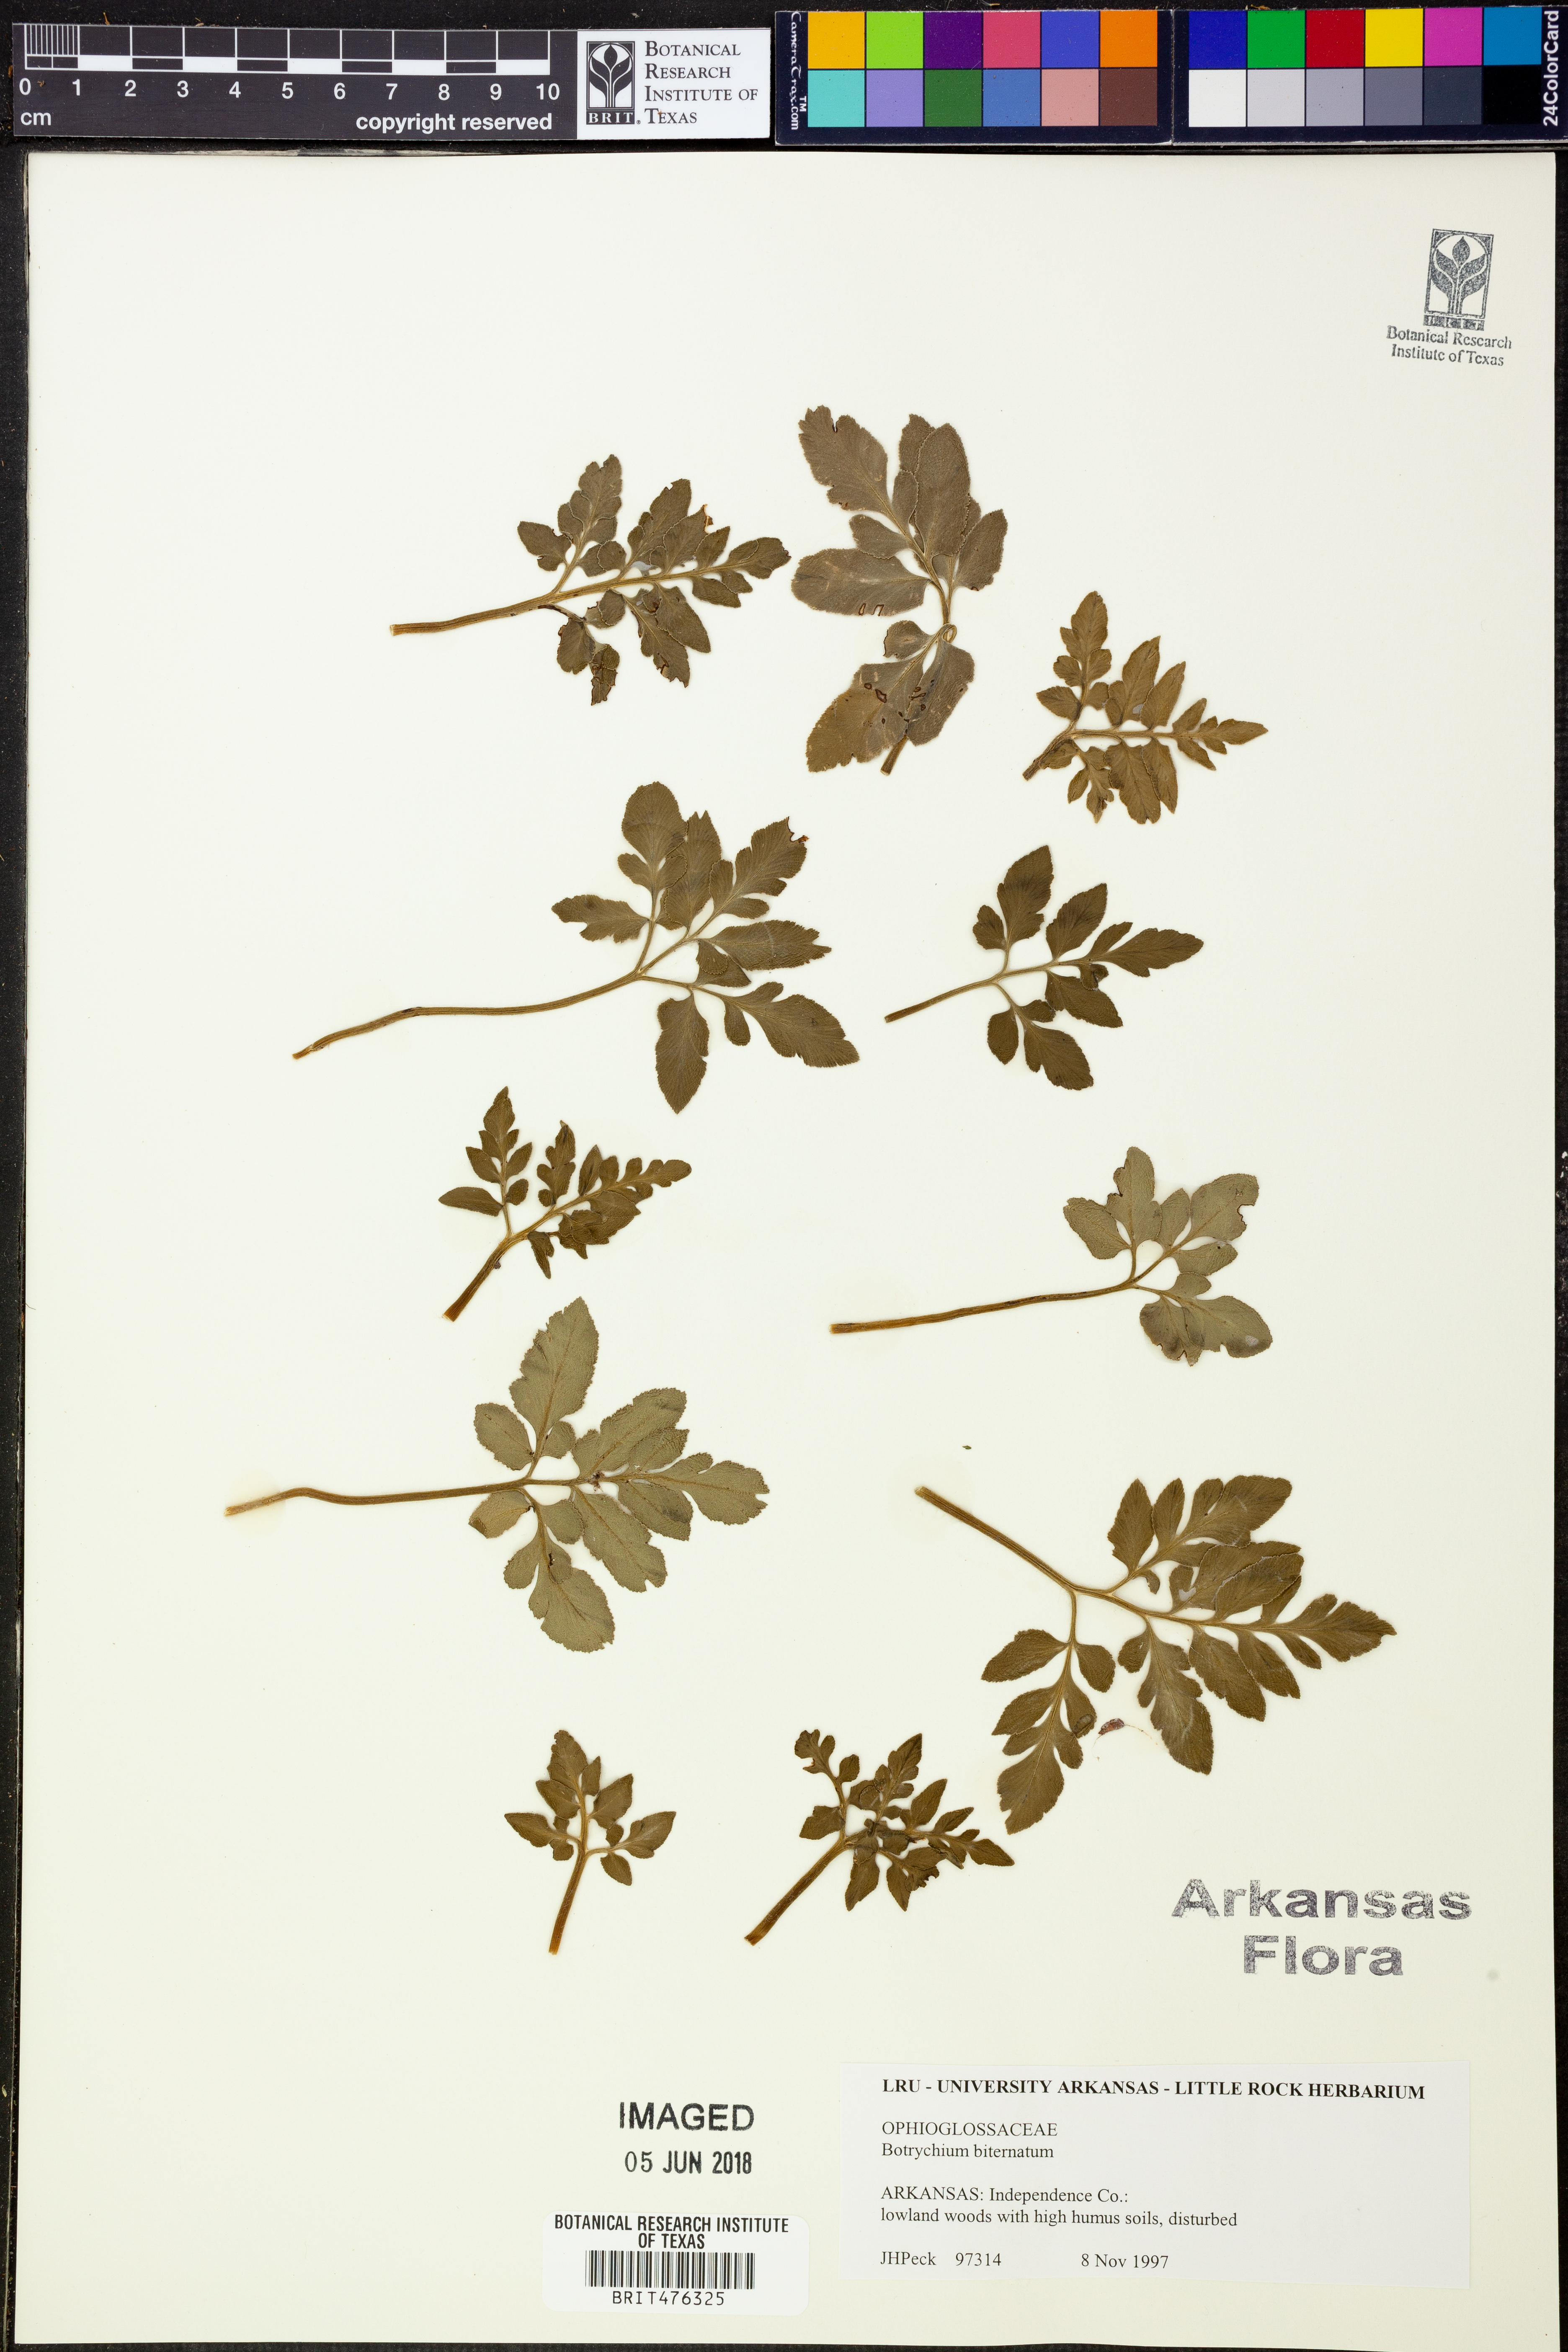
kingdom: Plantae
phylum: Tracheophyta
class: Polypodiopsida
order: Ophioglossales
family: Ophioglossaceae
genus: Sceptridium
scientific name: Sceptridium biternatum
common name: Sparse-lobed grapefern
